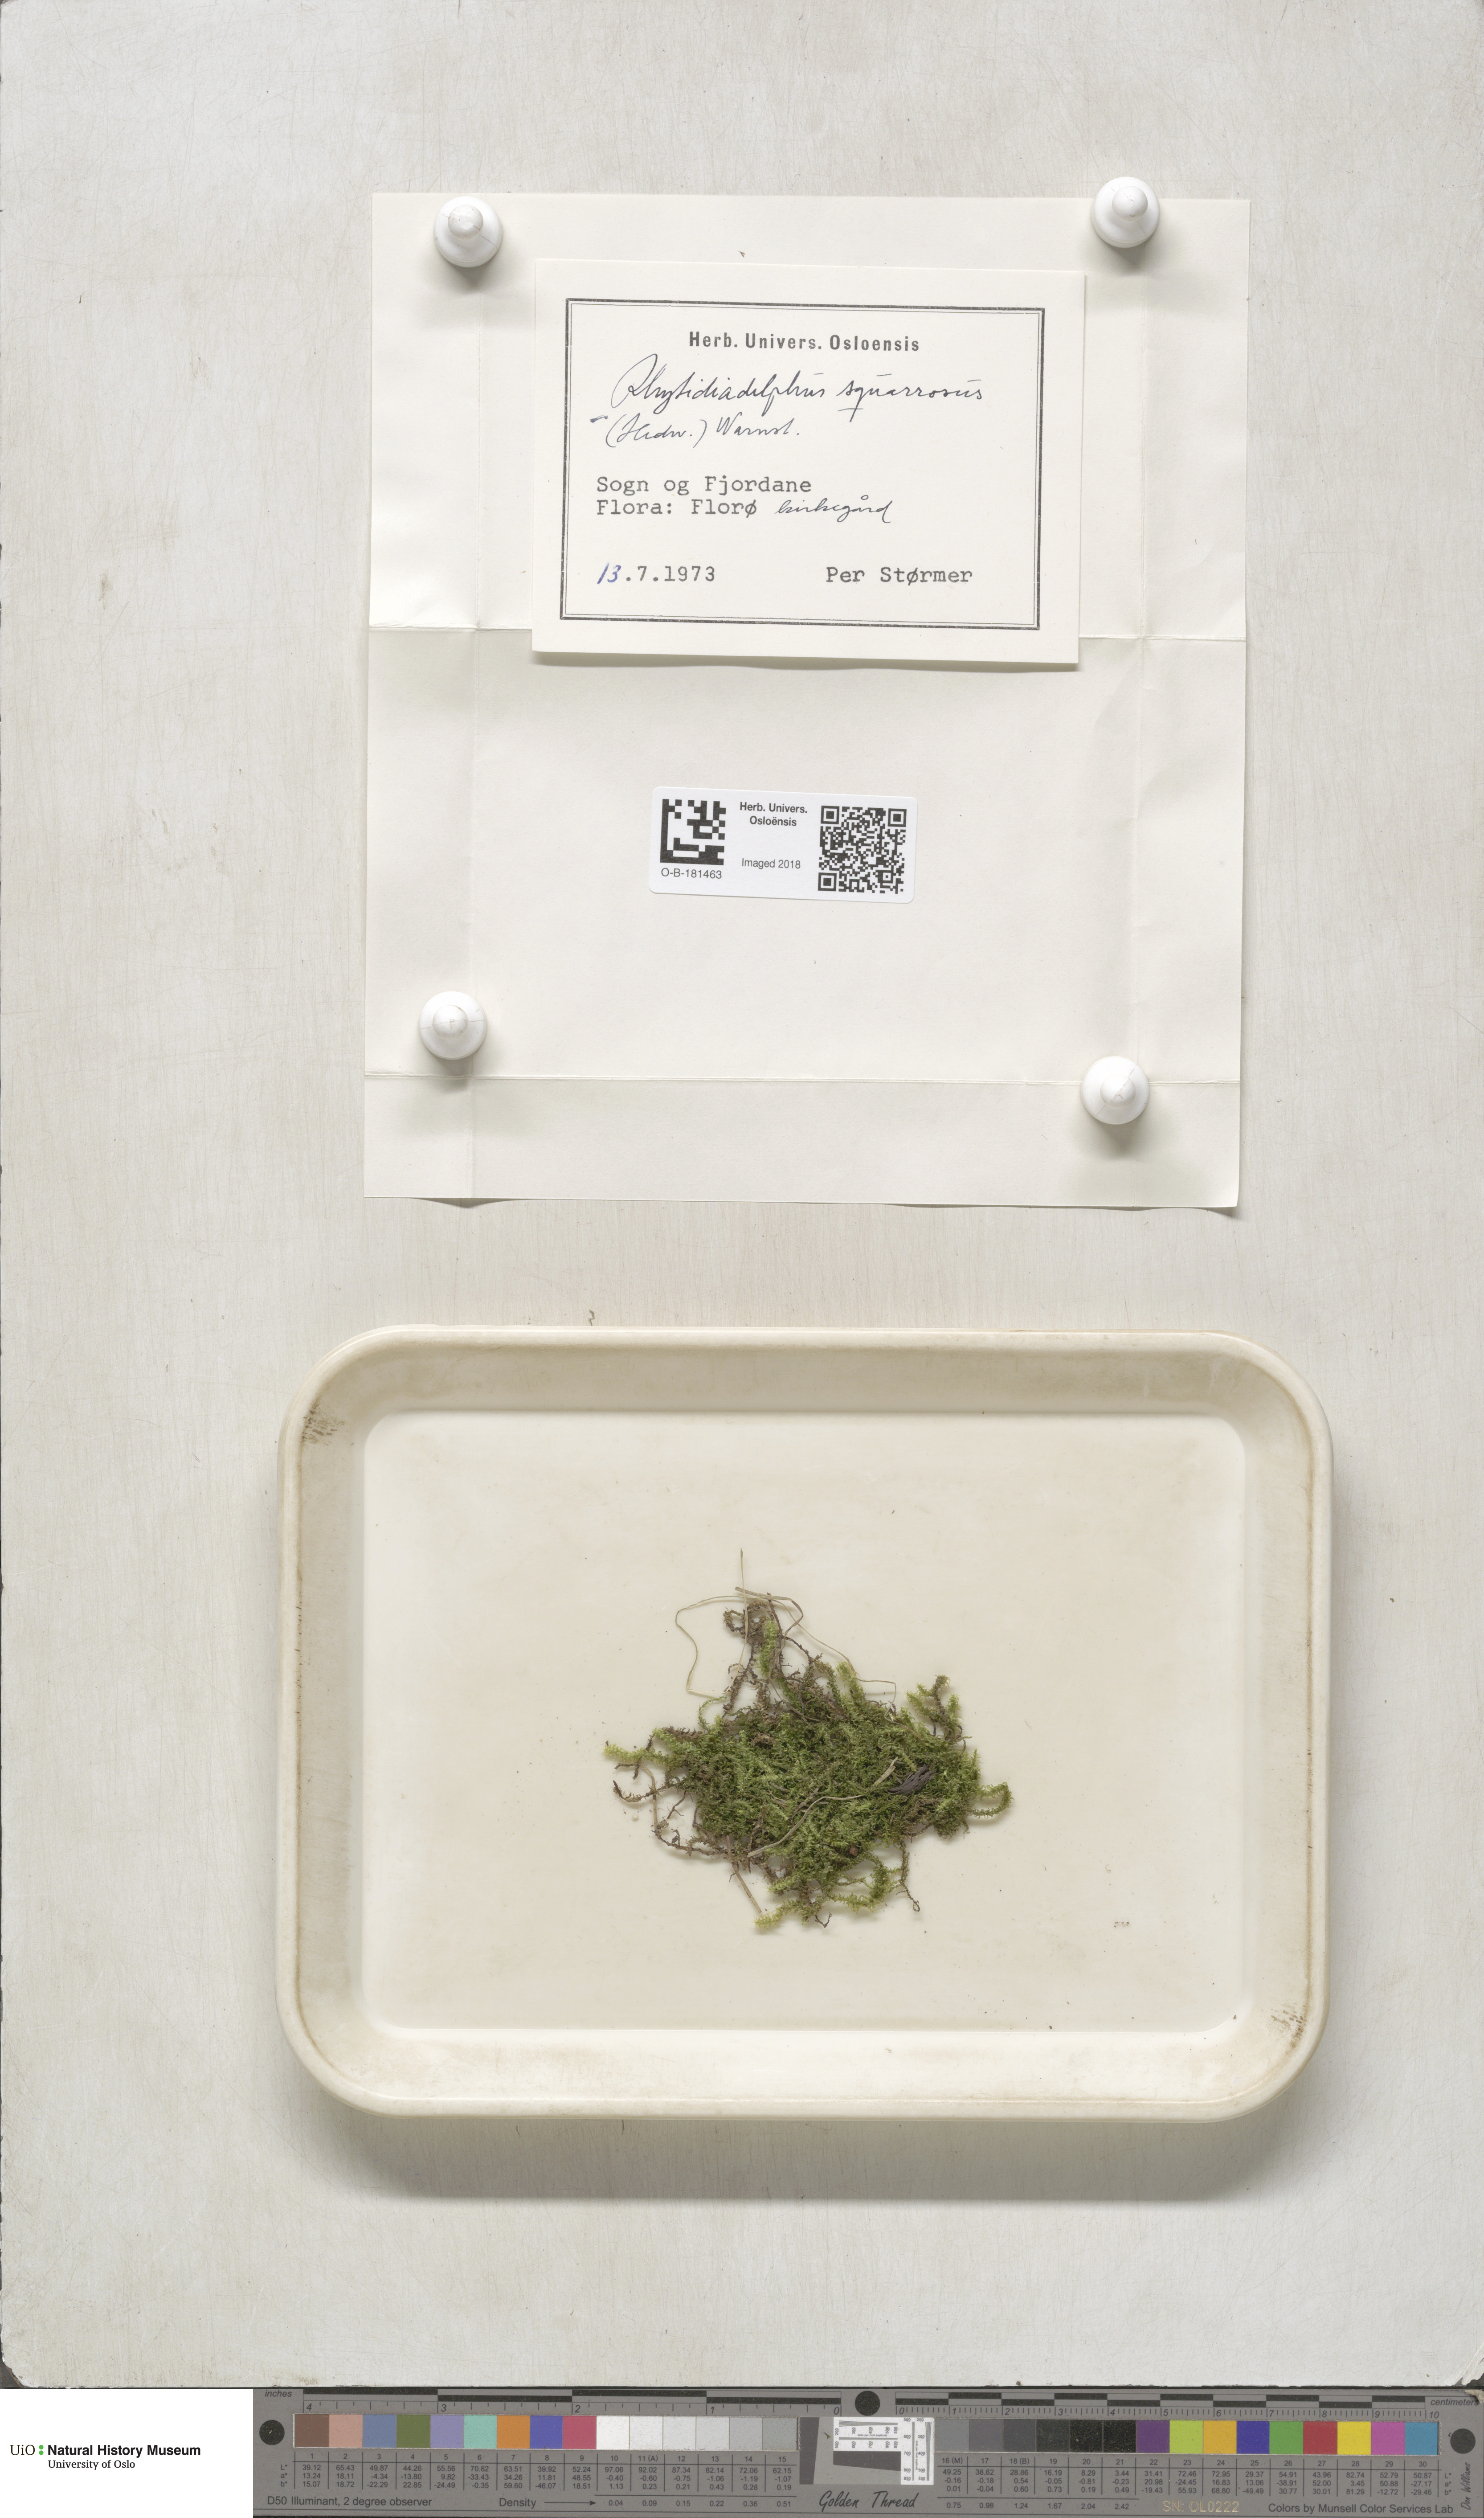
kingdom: Plantae
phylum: Bryophyta
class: Bryopsida
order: Hypnales
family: Hylocomiaceae
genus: Rhytidiadelphus
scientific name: Rhytidiadelphus squarrosus
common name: Springy turf-moss
